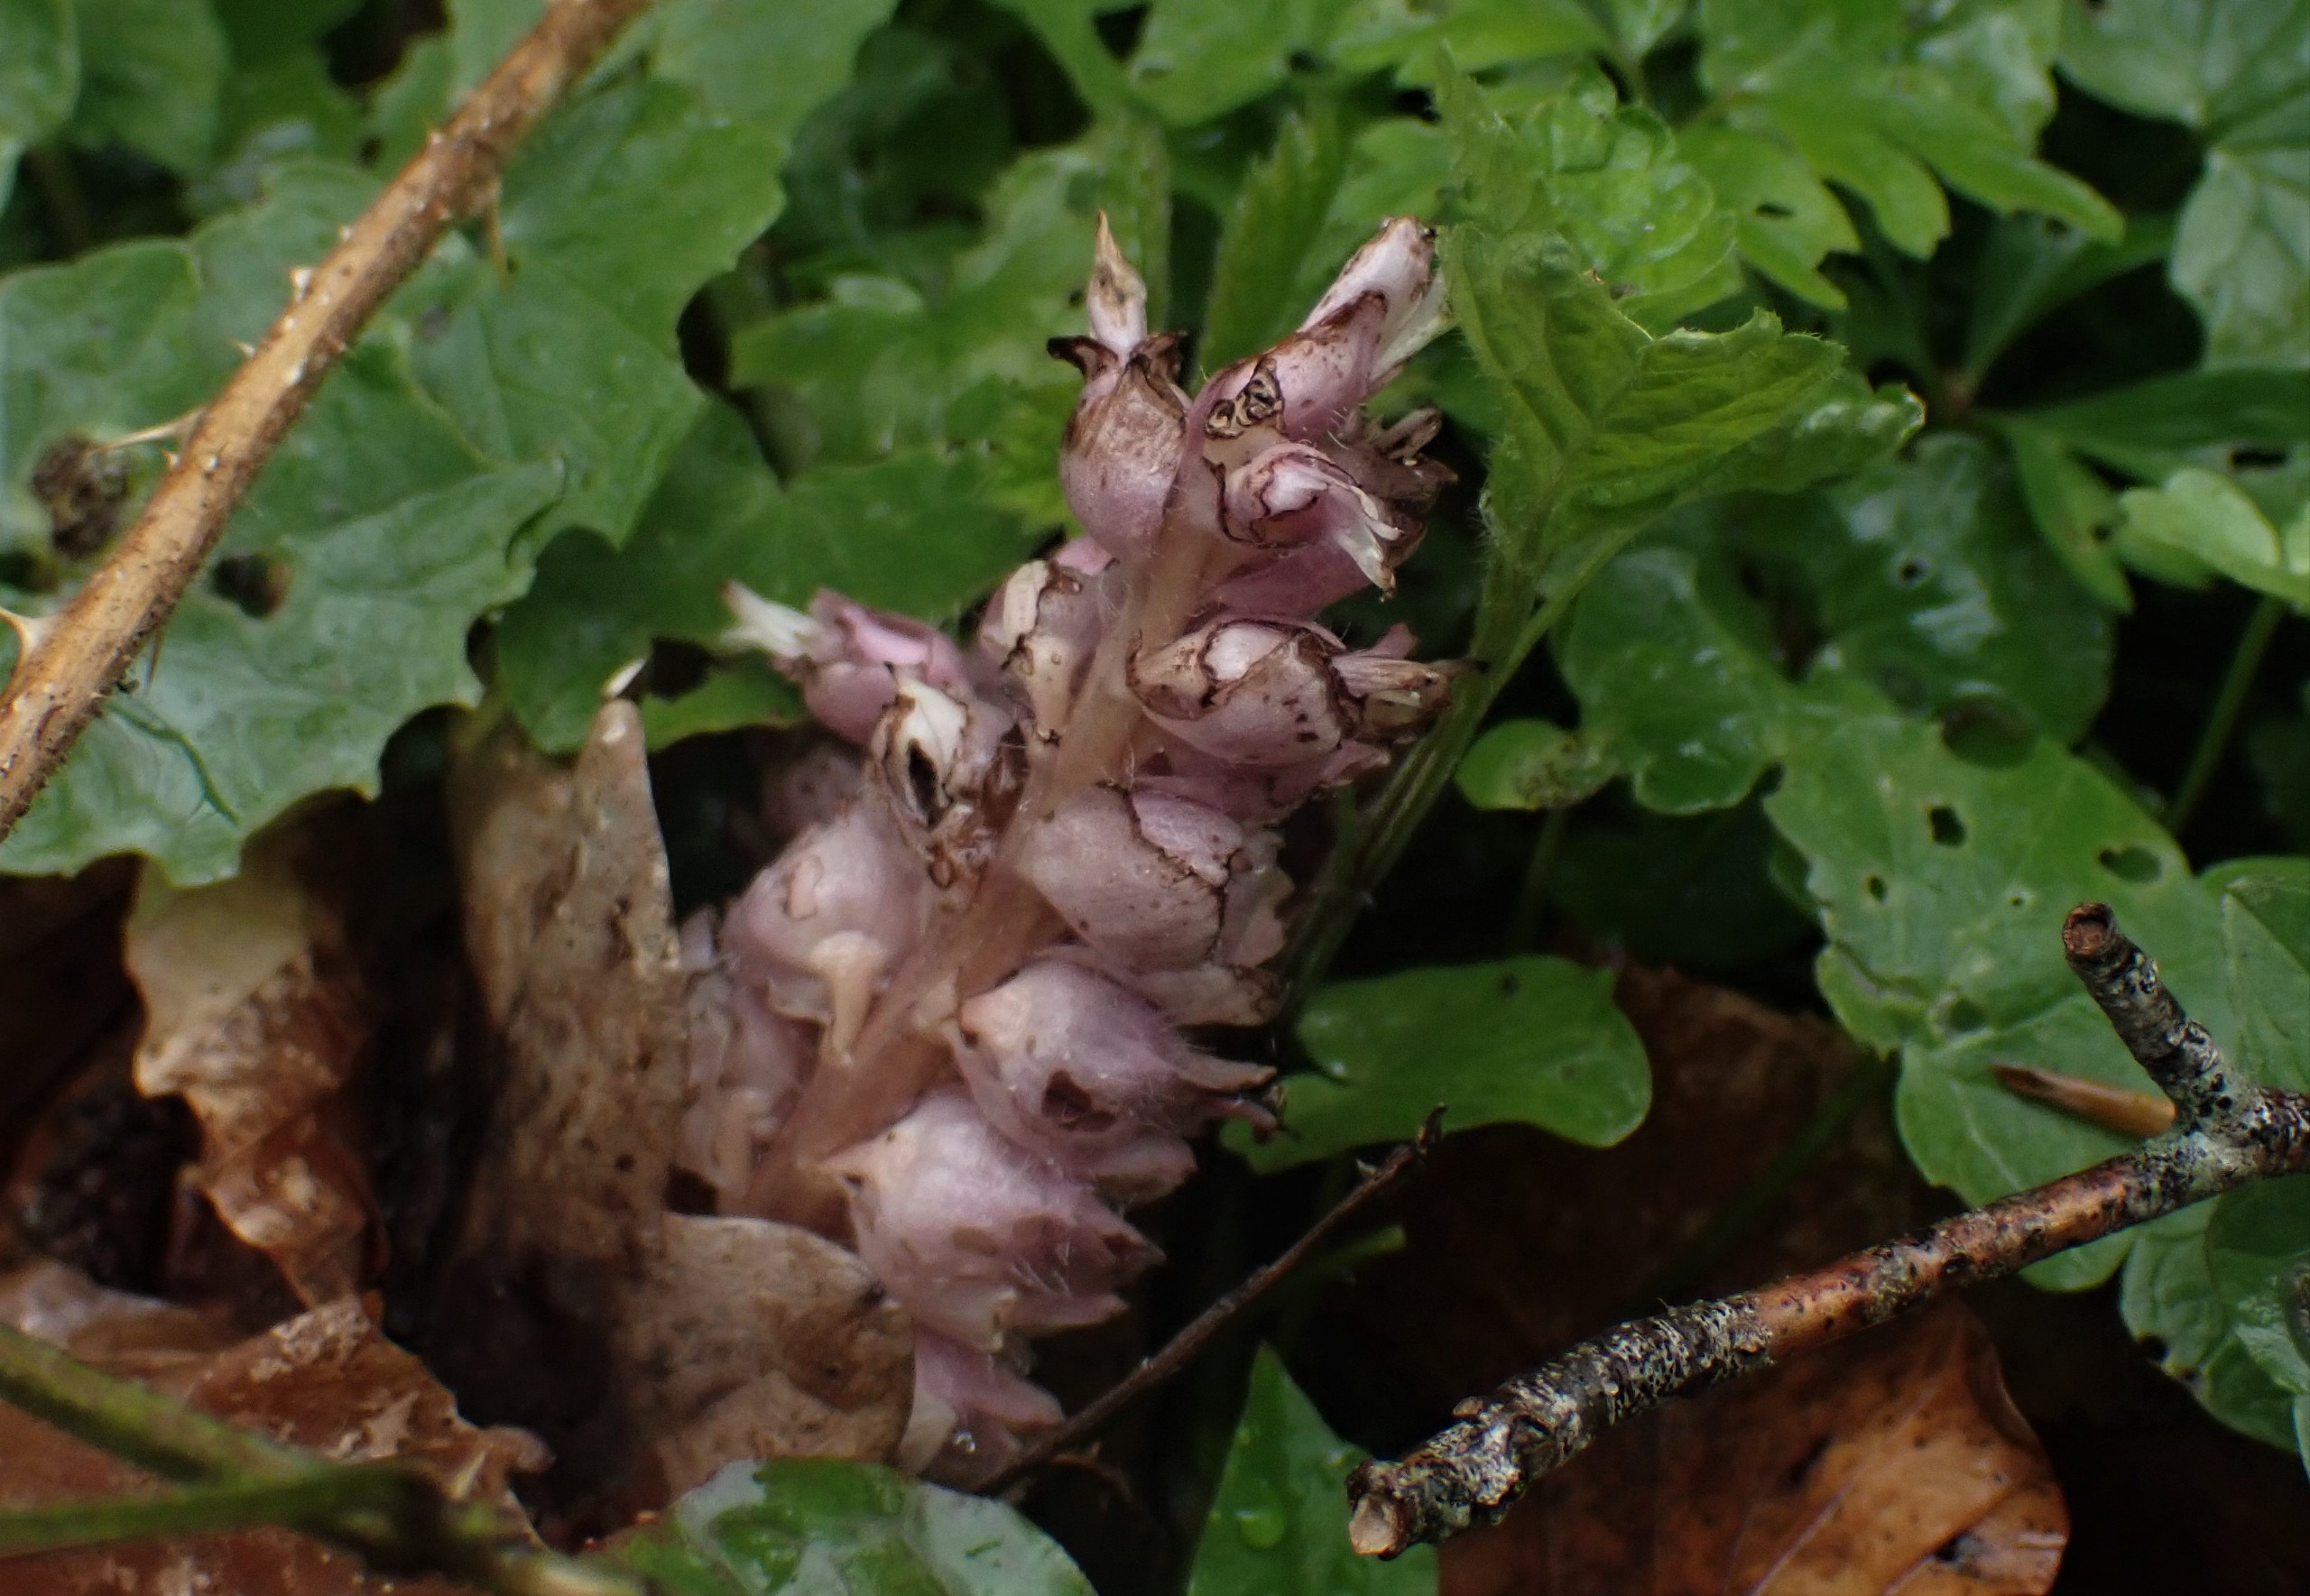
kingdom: Plantae
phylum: Tracheophyta
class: Magnoliopsida
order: Lamiales
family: Orobanchaceae
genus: Lathraea
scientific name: Lathraea squamaria
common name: Skælrod
